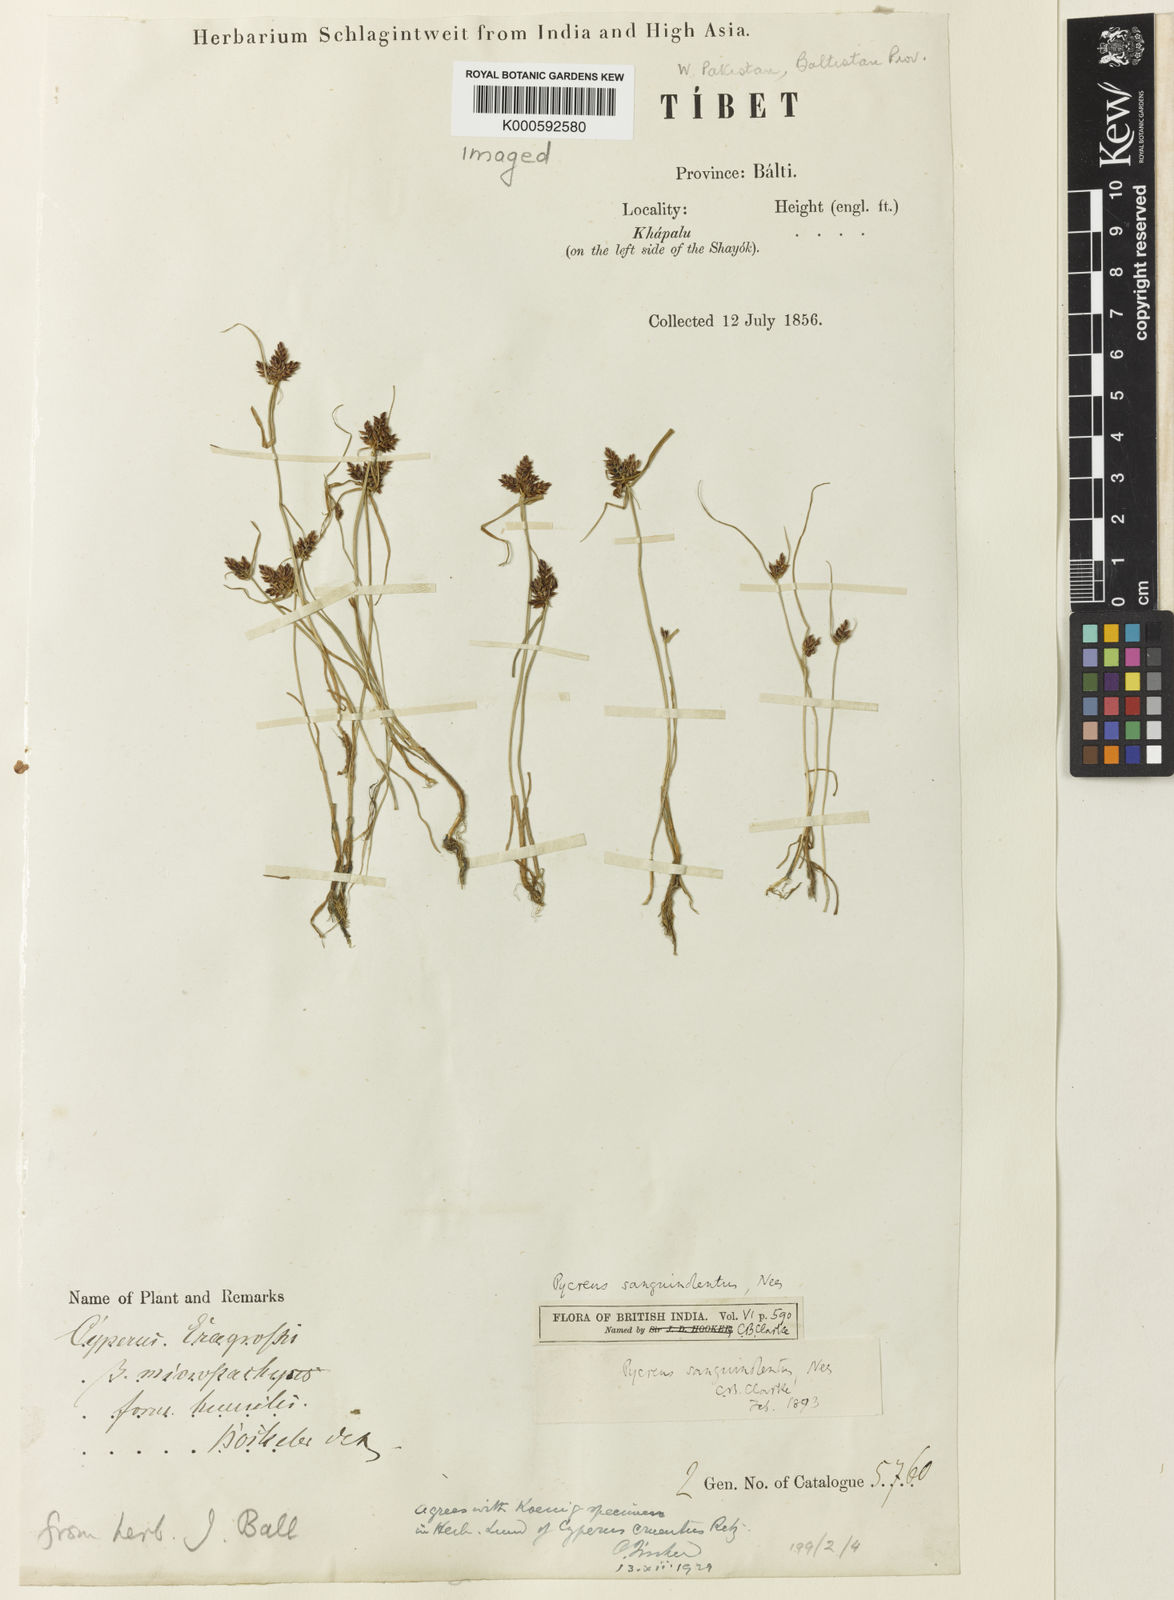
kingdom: Plantae
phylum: Tracheophyta
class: Liliopsida
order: Poales
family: Cyperaceae
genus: Cyperus
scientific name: Cyperus sanguinolentus
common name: Purpleglume flatsedge
